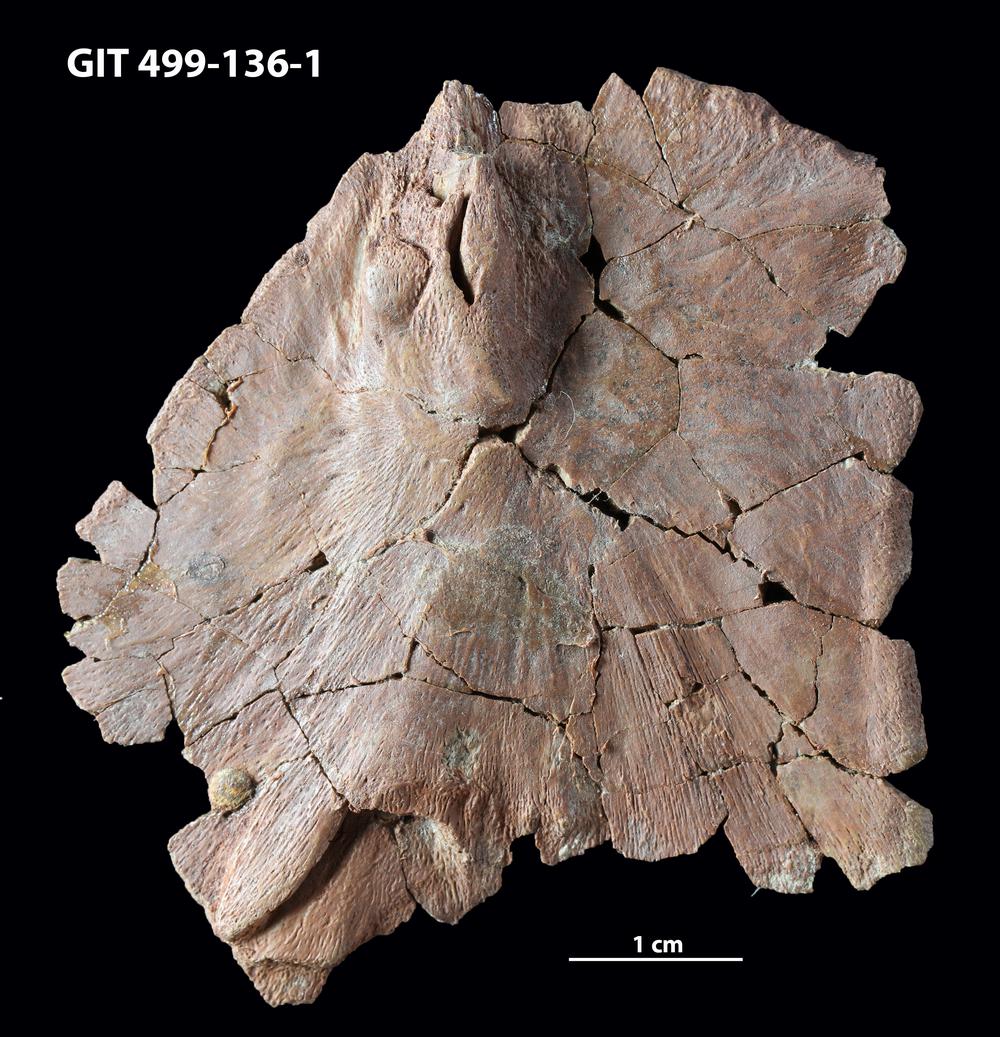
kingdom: Animalia
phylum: Chordata
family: Holoptychiidae
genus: Glyptolepis
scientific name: Glyptolepis
